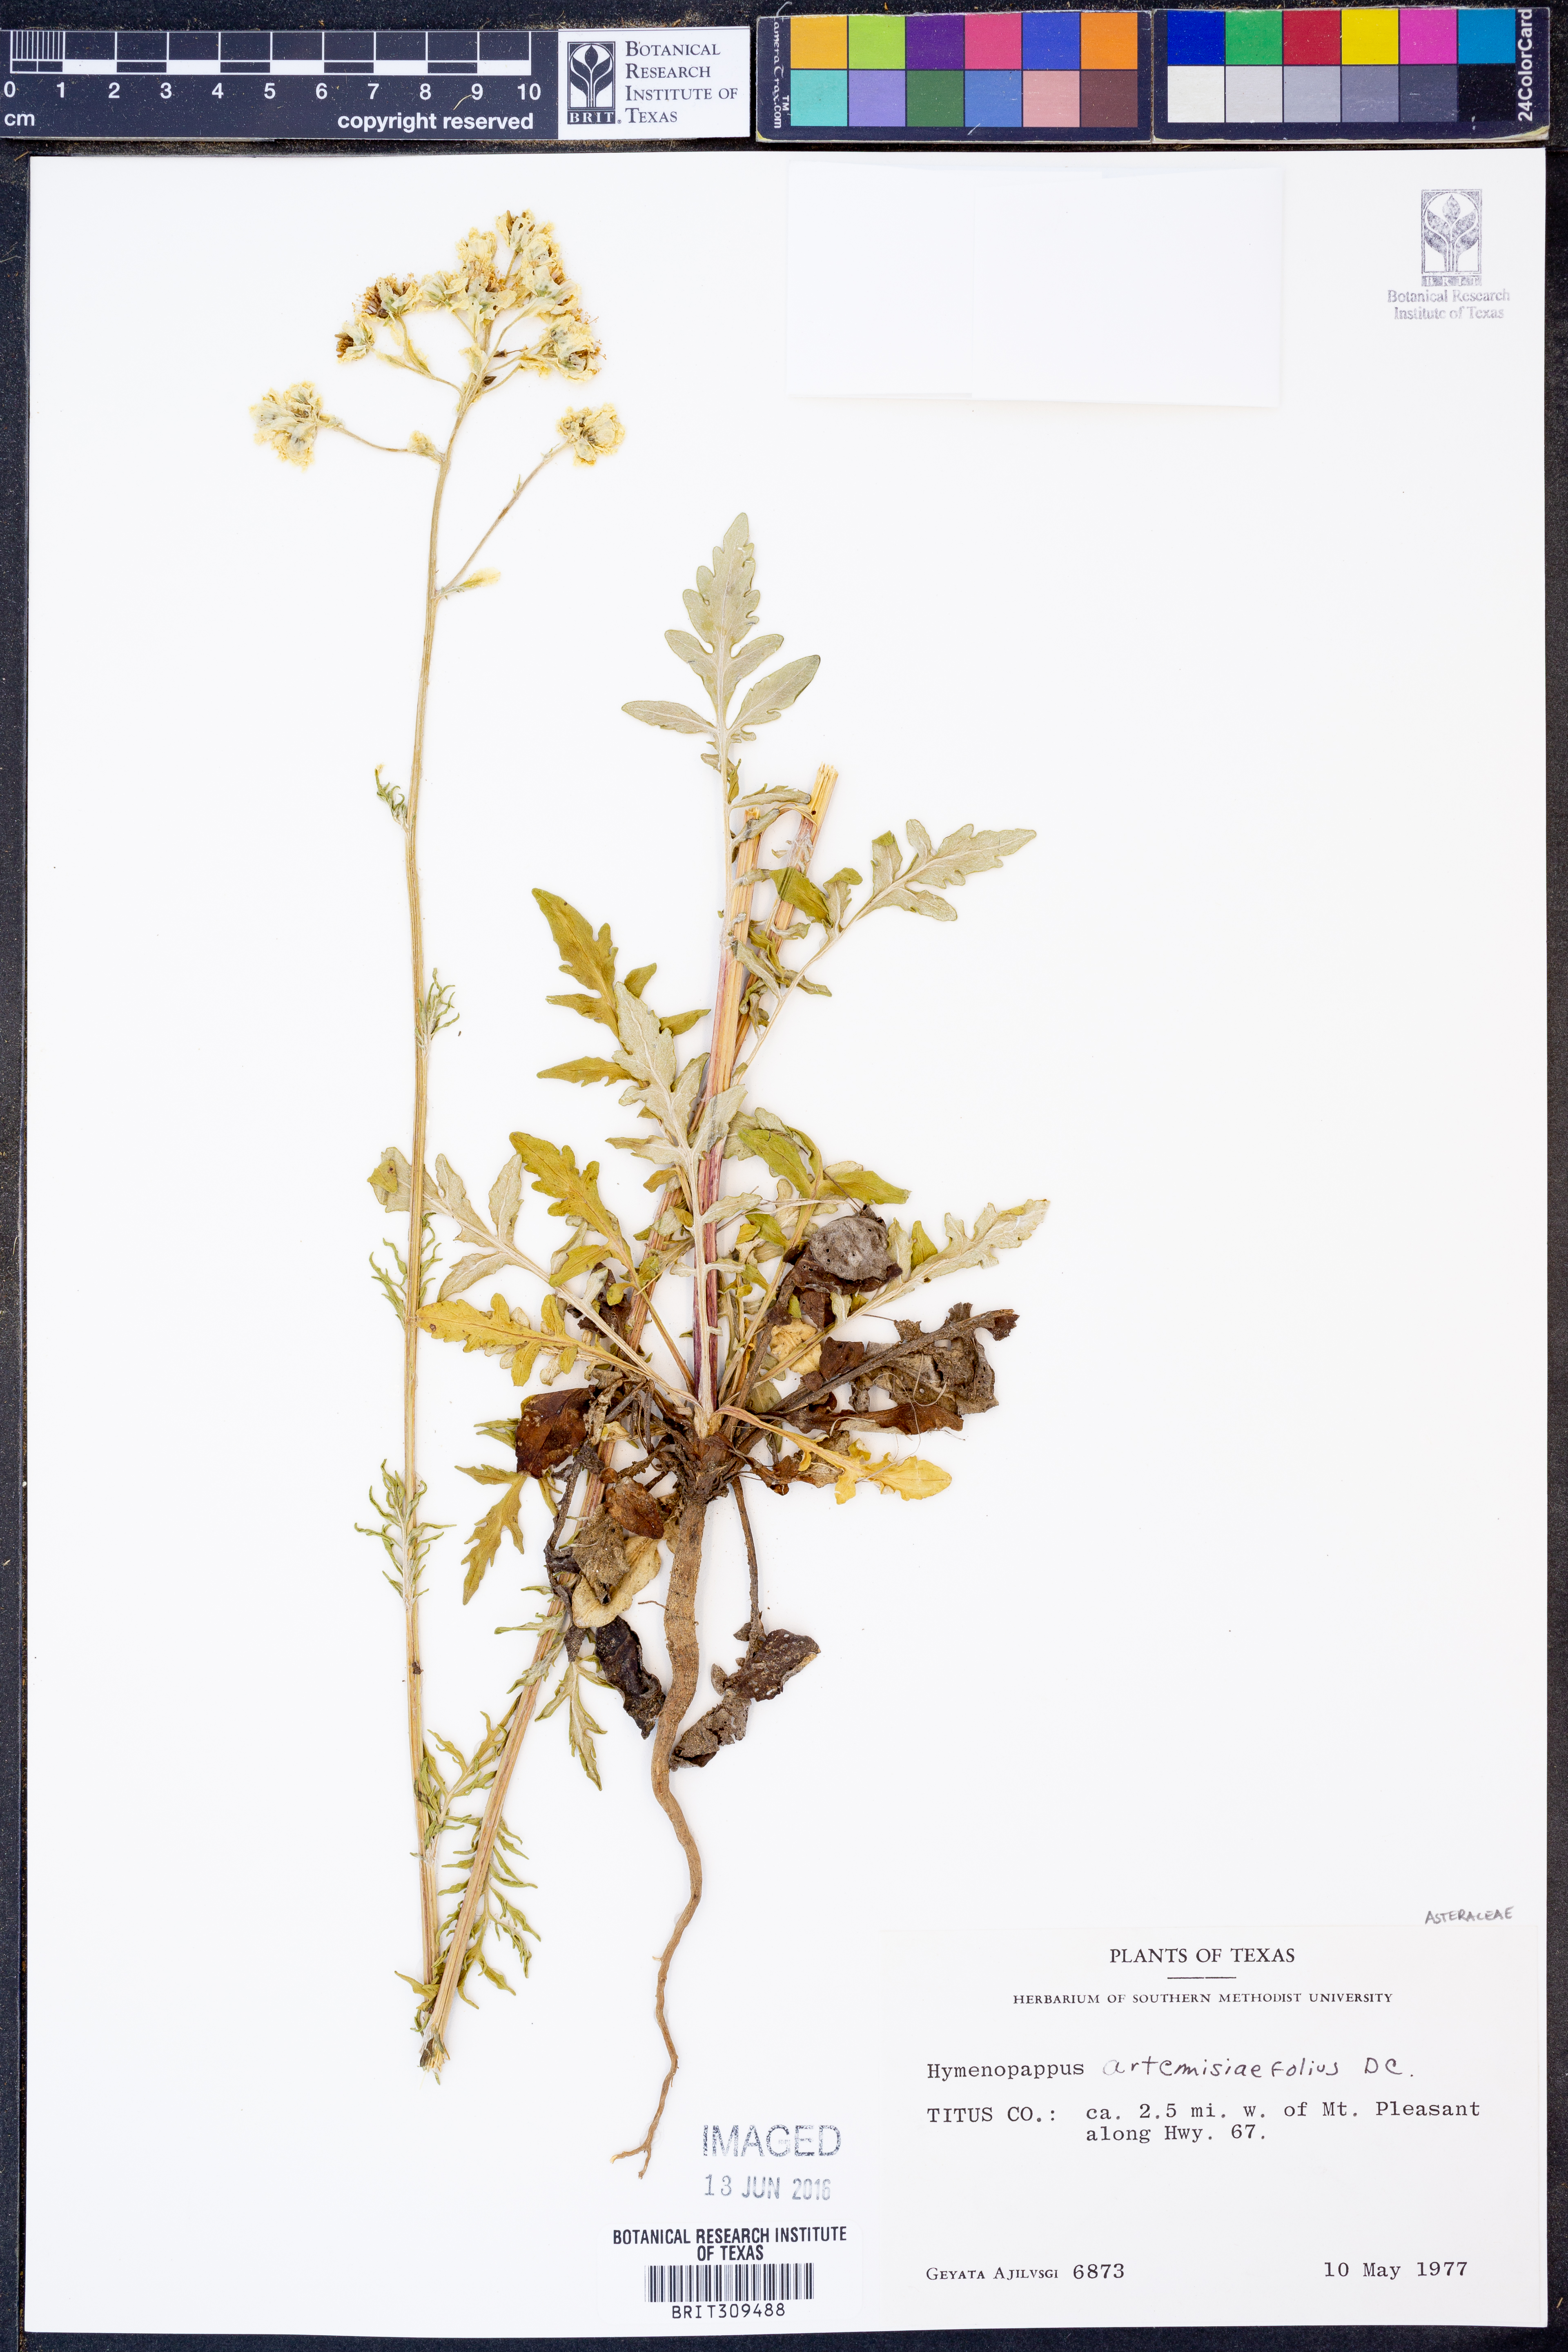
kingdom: Plantae
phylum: Tracheophyta
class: Magnoliopsida
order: Asterales
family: Asteraceae
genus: Hymenopappus
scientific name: Hymenopappus artemisiifolius
